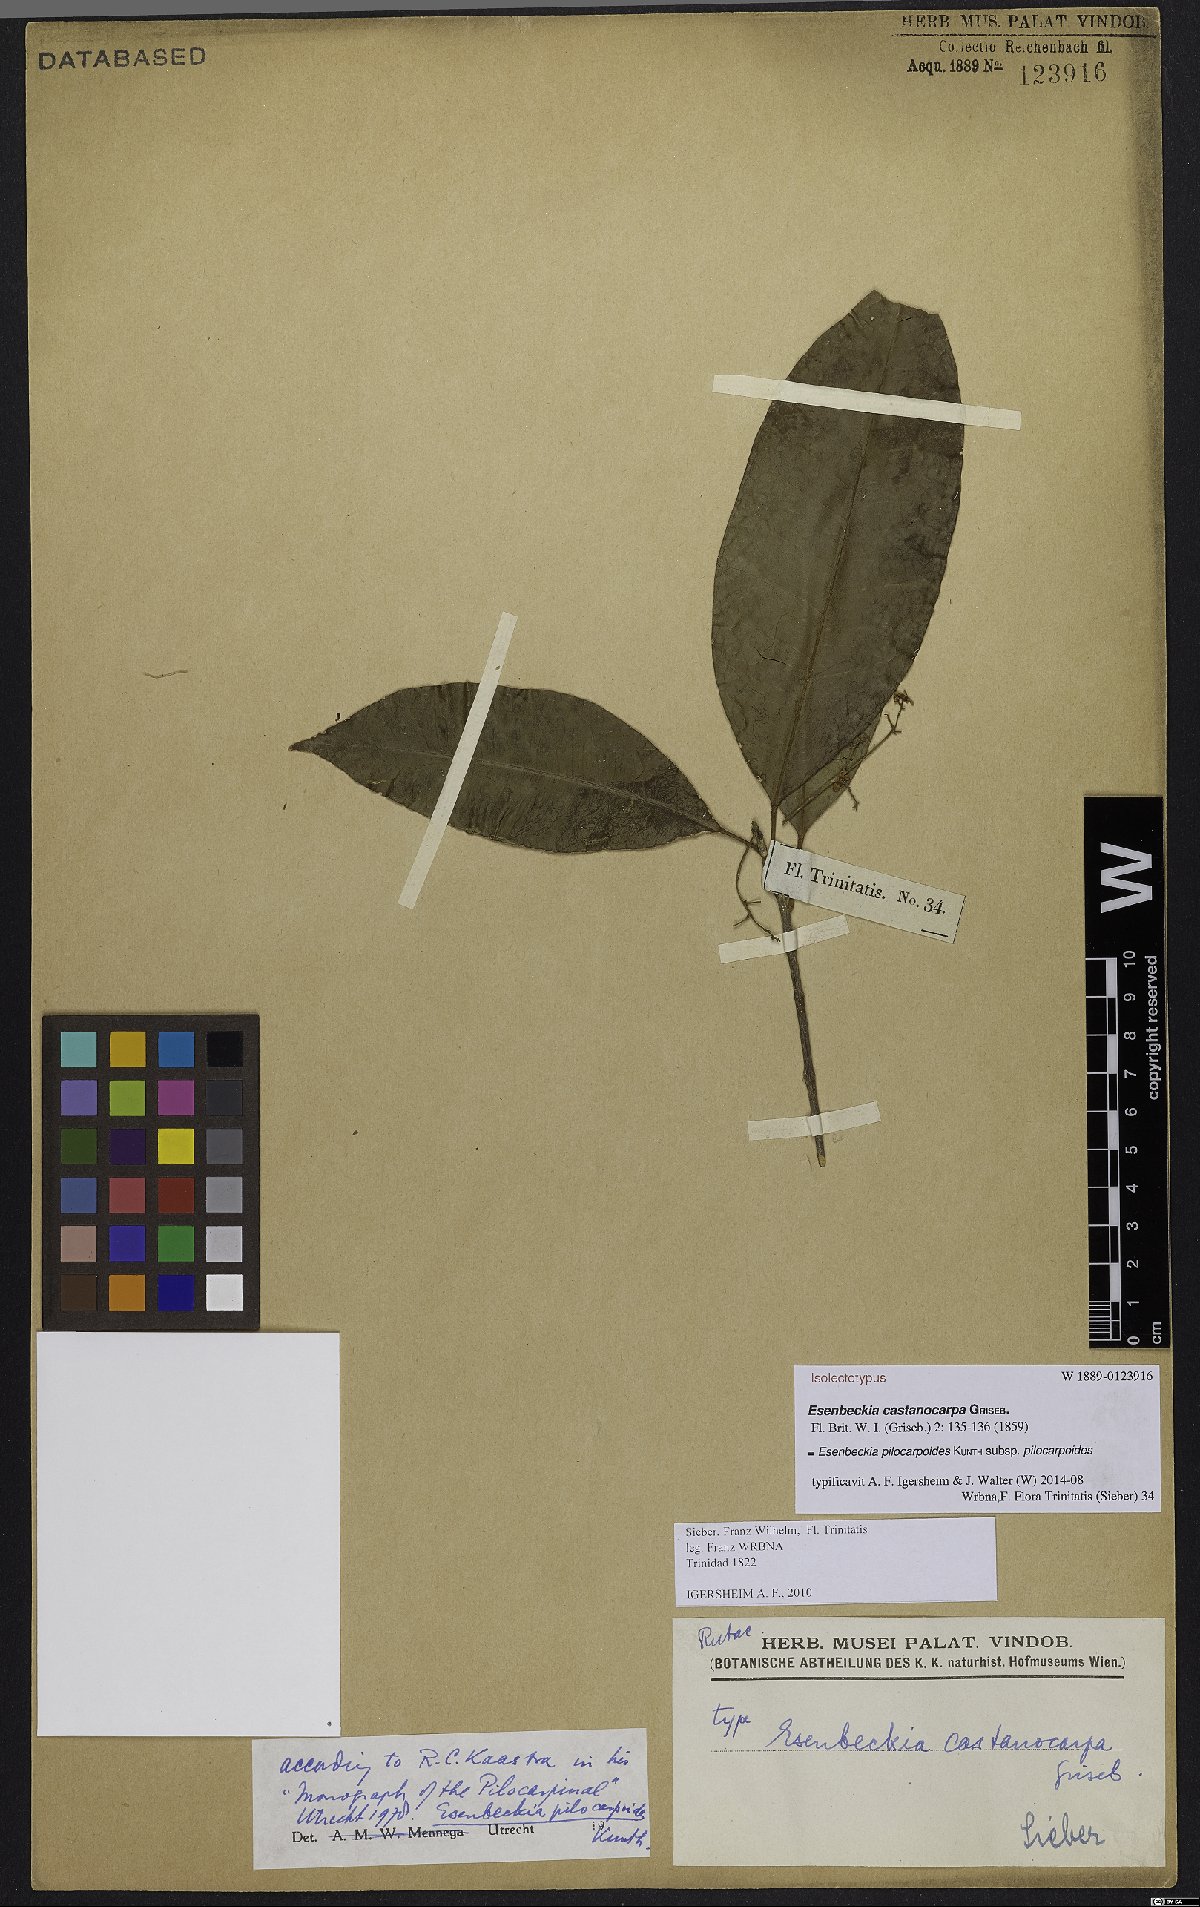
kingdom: Plantae
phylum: Tracheophyta
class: Magnoliopsida
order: Sapindales
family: Rutaceae
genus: Esenbeckia
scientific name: Esenbeckia pilocarpoides
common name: Pilosefruit esenbeckia
